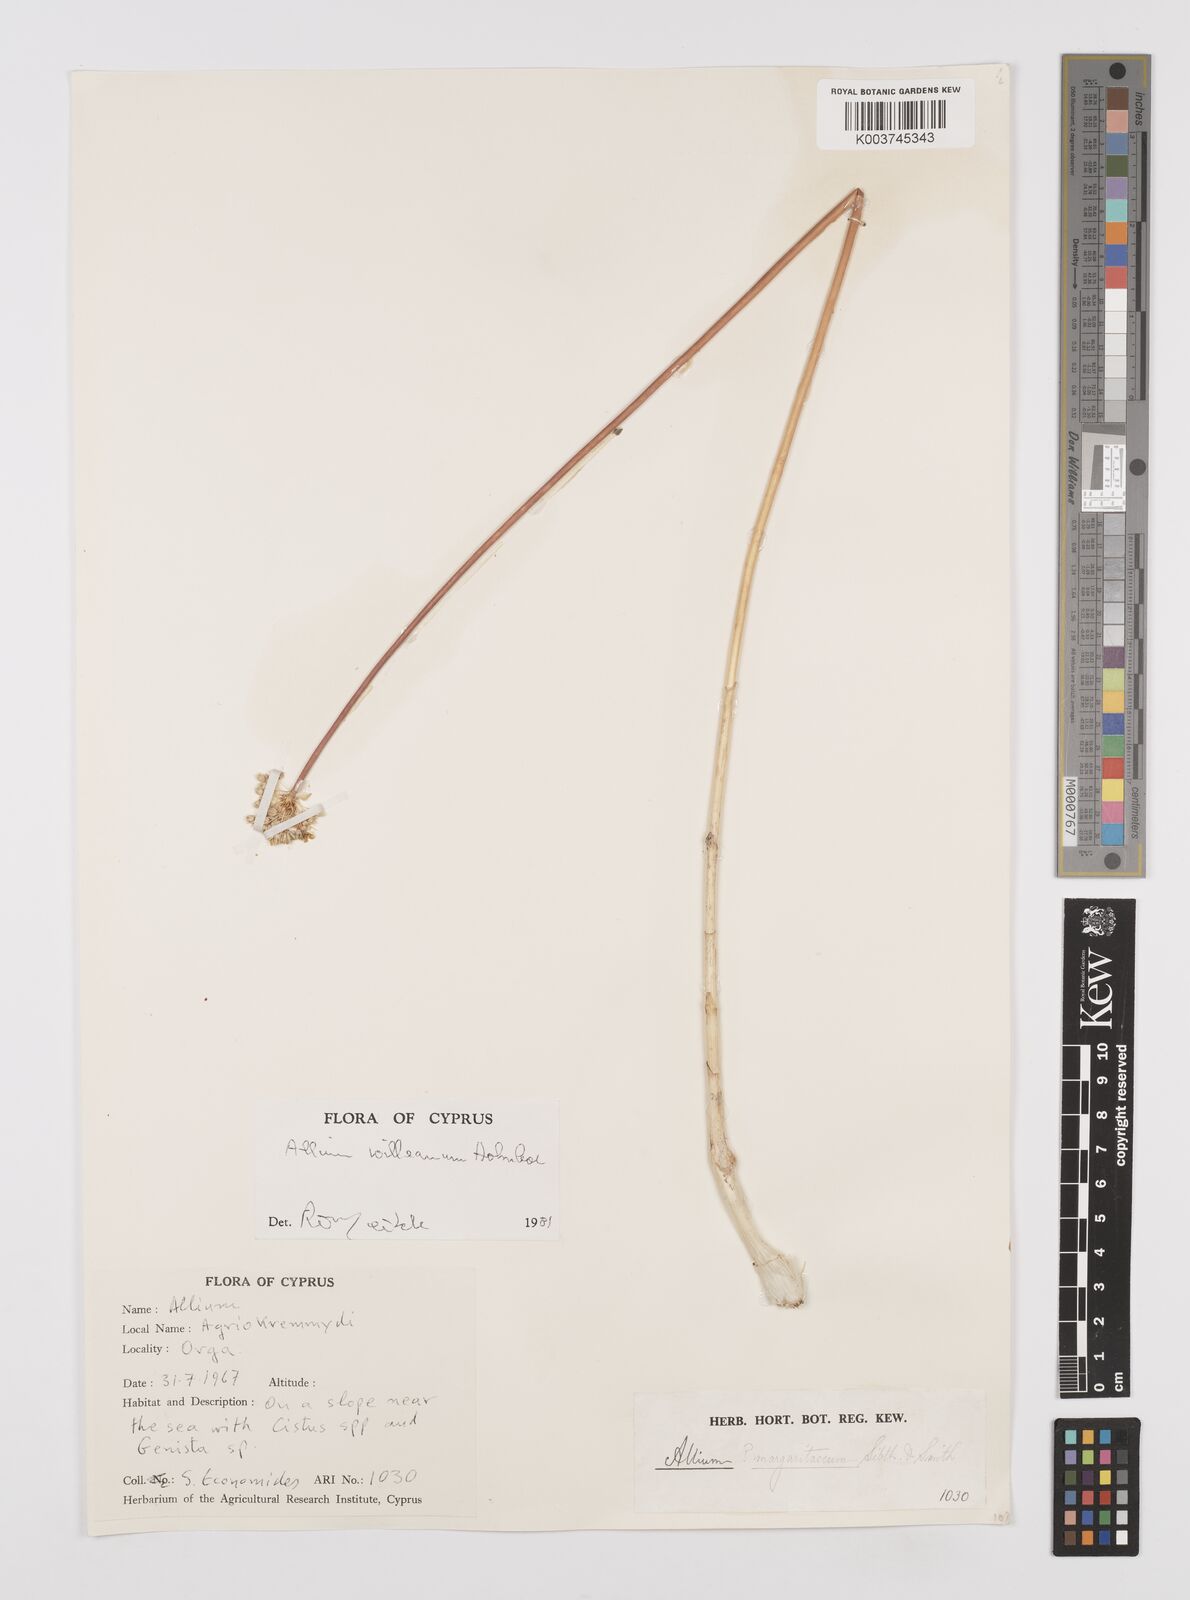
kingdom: Plantae
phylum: Tracheophyta
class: Liliopsida
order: Asparagales
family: Amaryllidaceae
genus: Allium
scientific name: Allium willeanum
